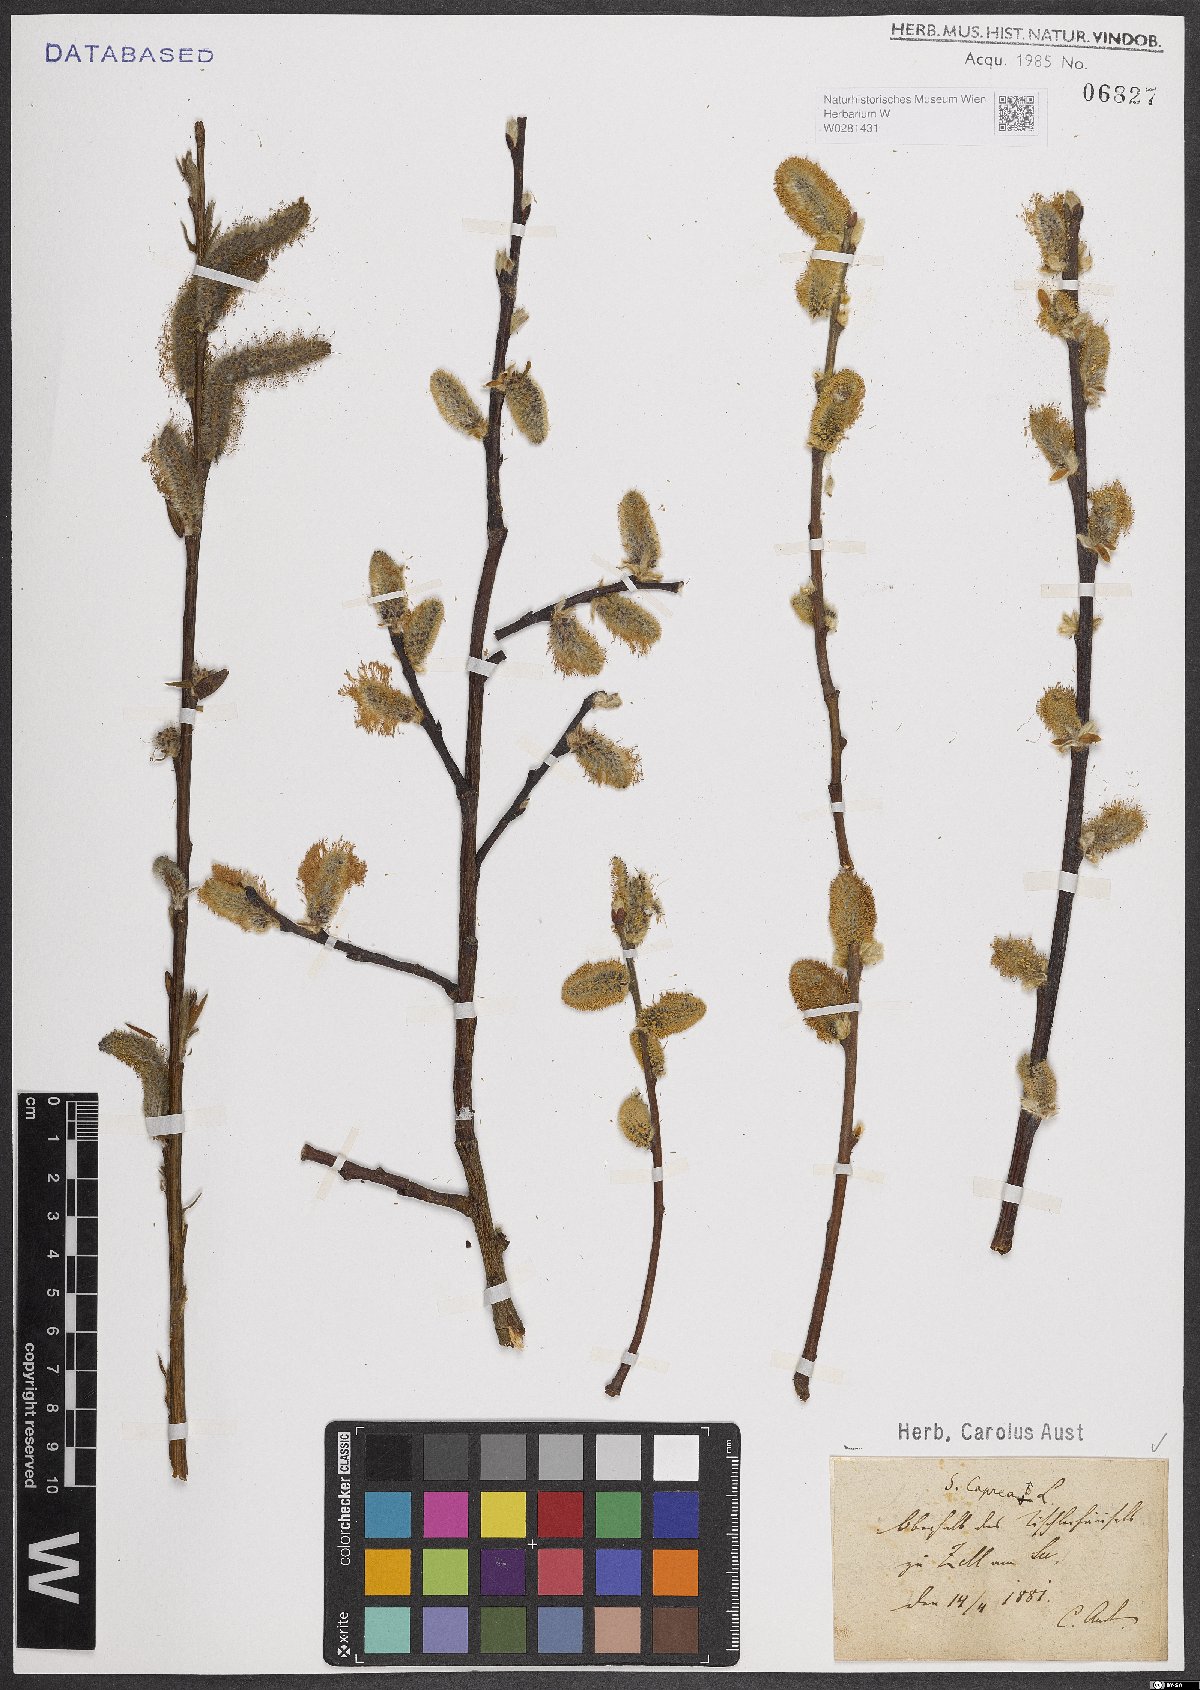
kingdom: Plantae
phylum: Tracheophyta
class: Magnoliopsida
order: Malpighiales
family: Salicaceae
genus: Salix
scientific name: Salix caprea
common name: Goat willow
